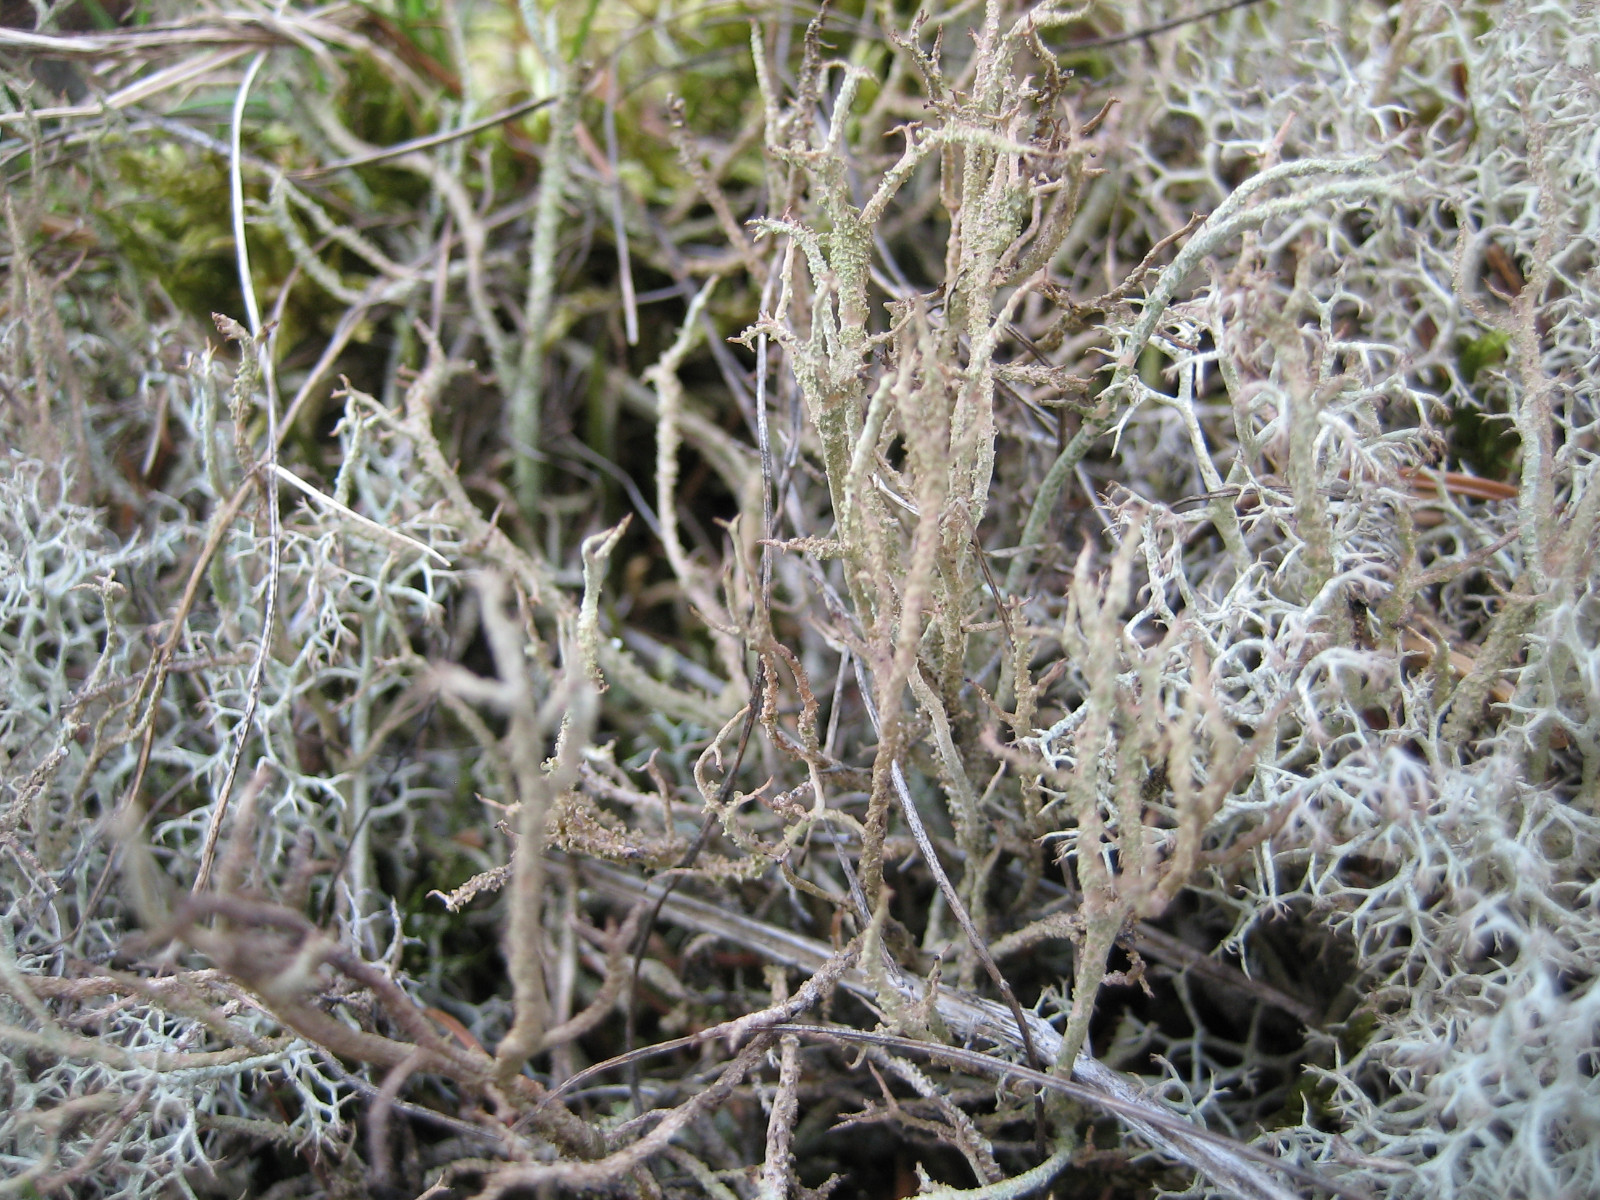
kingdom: Fungi
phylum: Ascomycota
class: Lecanoromycetes
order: Lecanorales
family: Cladoniaceae
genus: Cladonia
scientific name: Cladonia scabriuscula
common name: ru bægerlav
